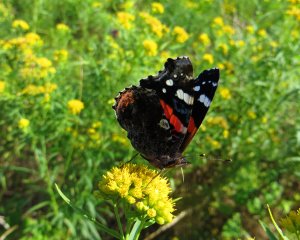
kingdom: Animalia
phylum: Arthropoda
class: Insecta
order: Lepidoptera
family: Nymphalidae
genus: Vanessa
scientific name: Vanessa atalanta
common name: Red Admiral
